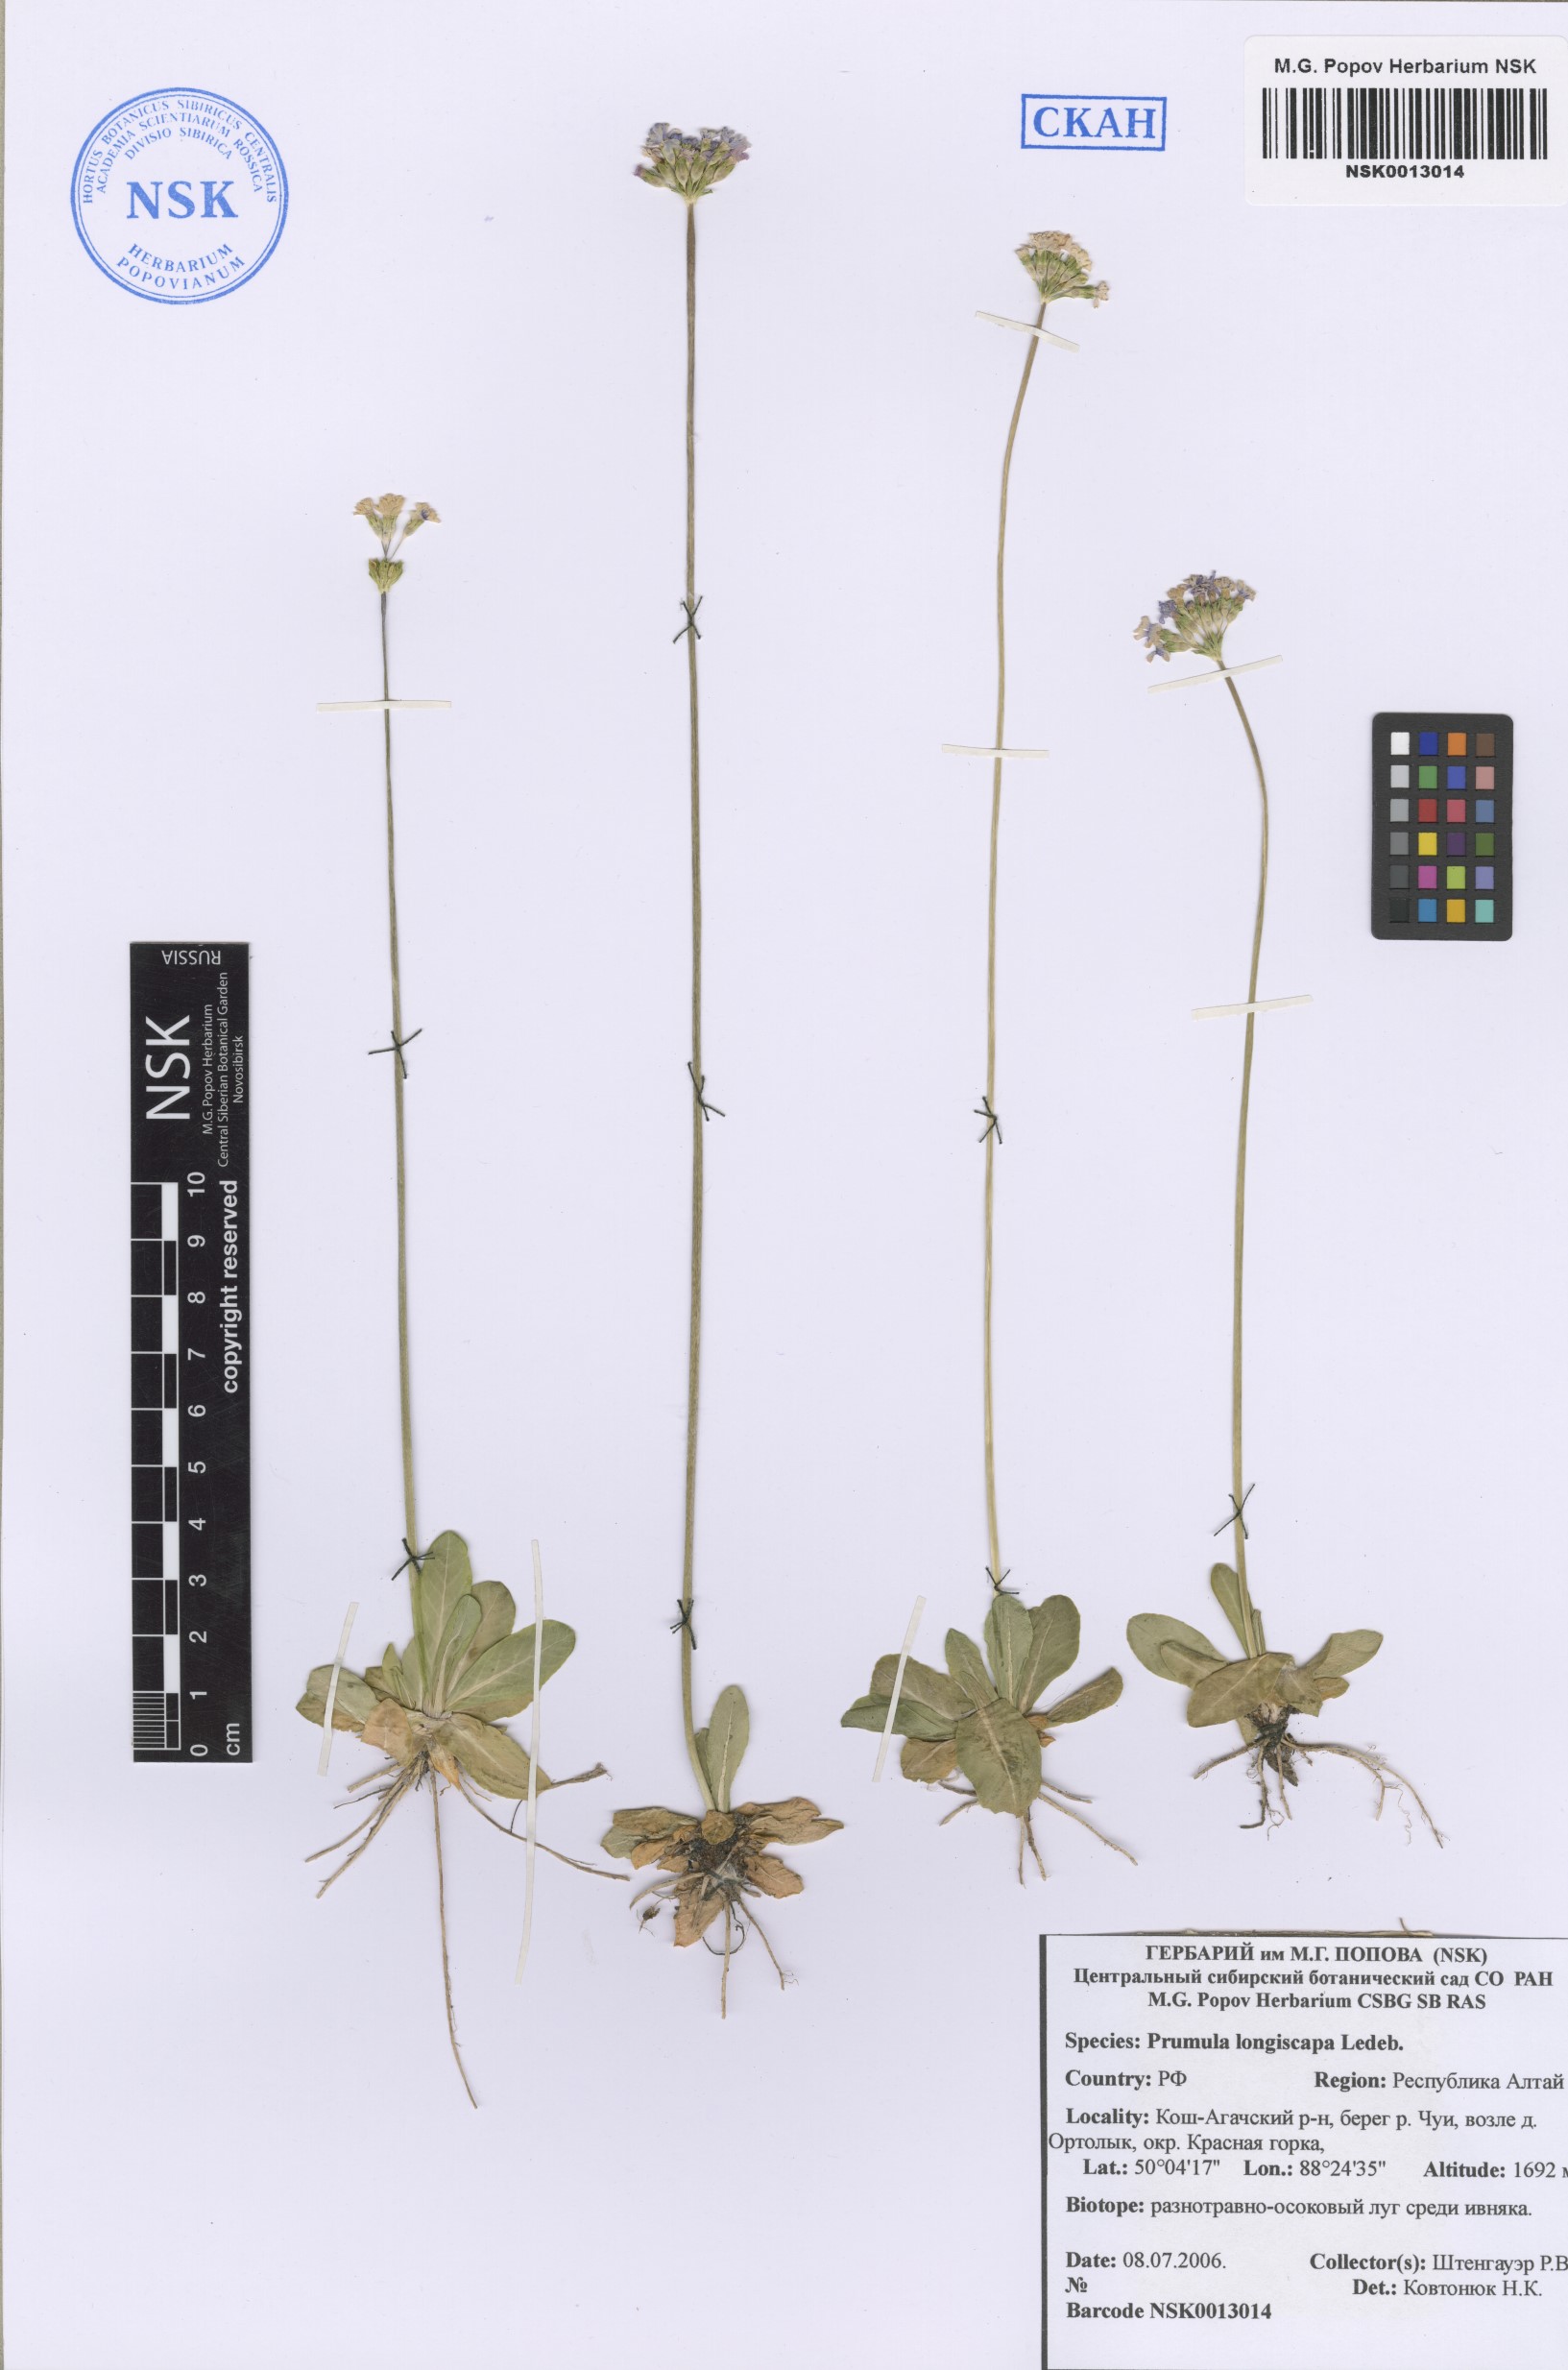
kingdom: Plantae
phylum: Tracheophyta
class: Magnoliopsida
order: Ericales
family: Primulaceae
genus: Primula
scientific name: Primula longiscapa
